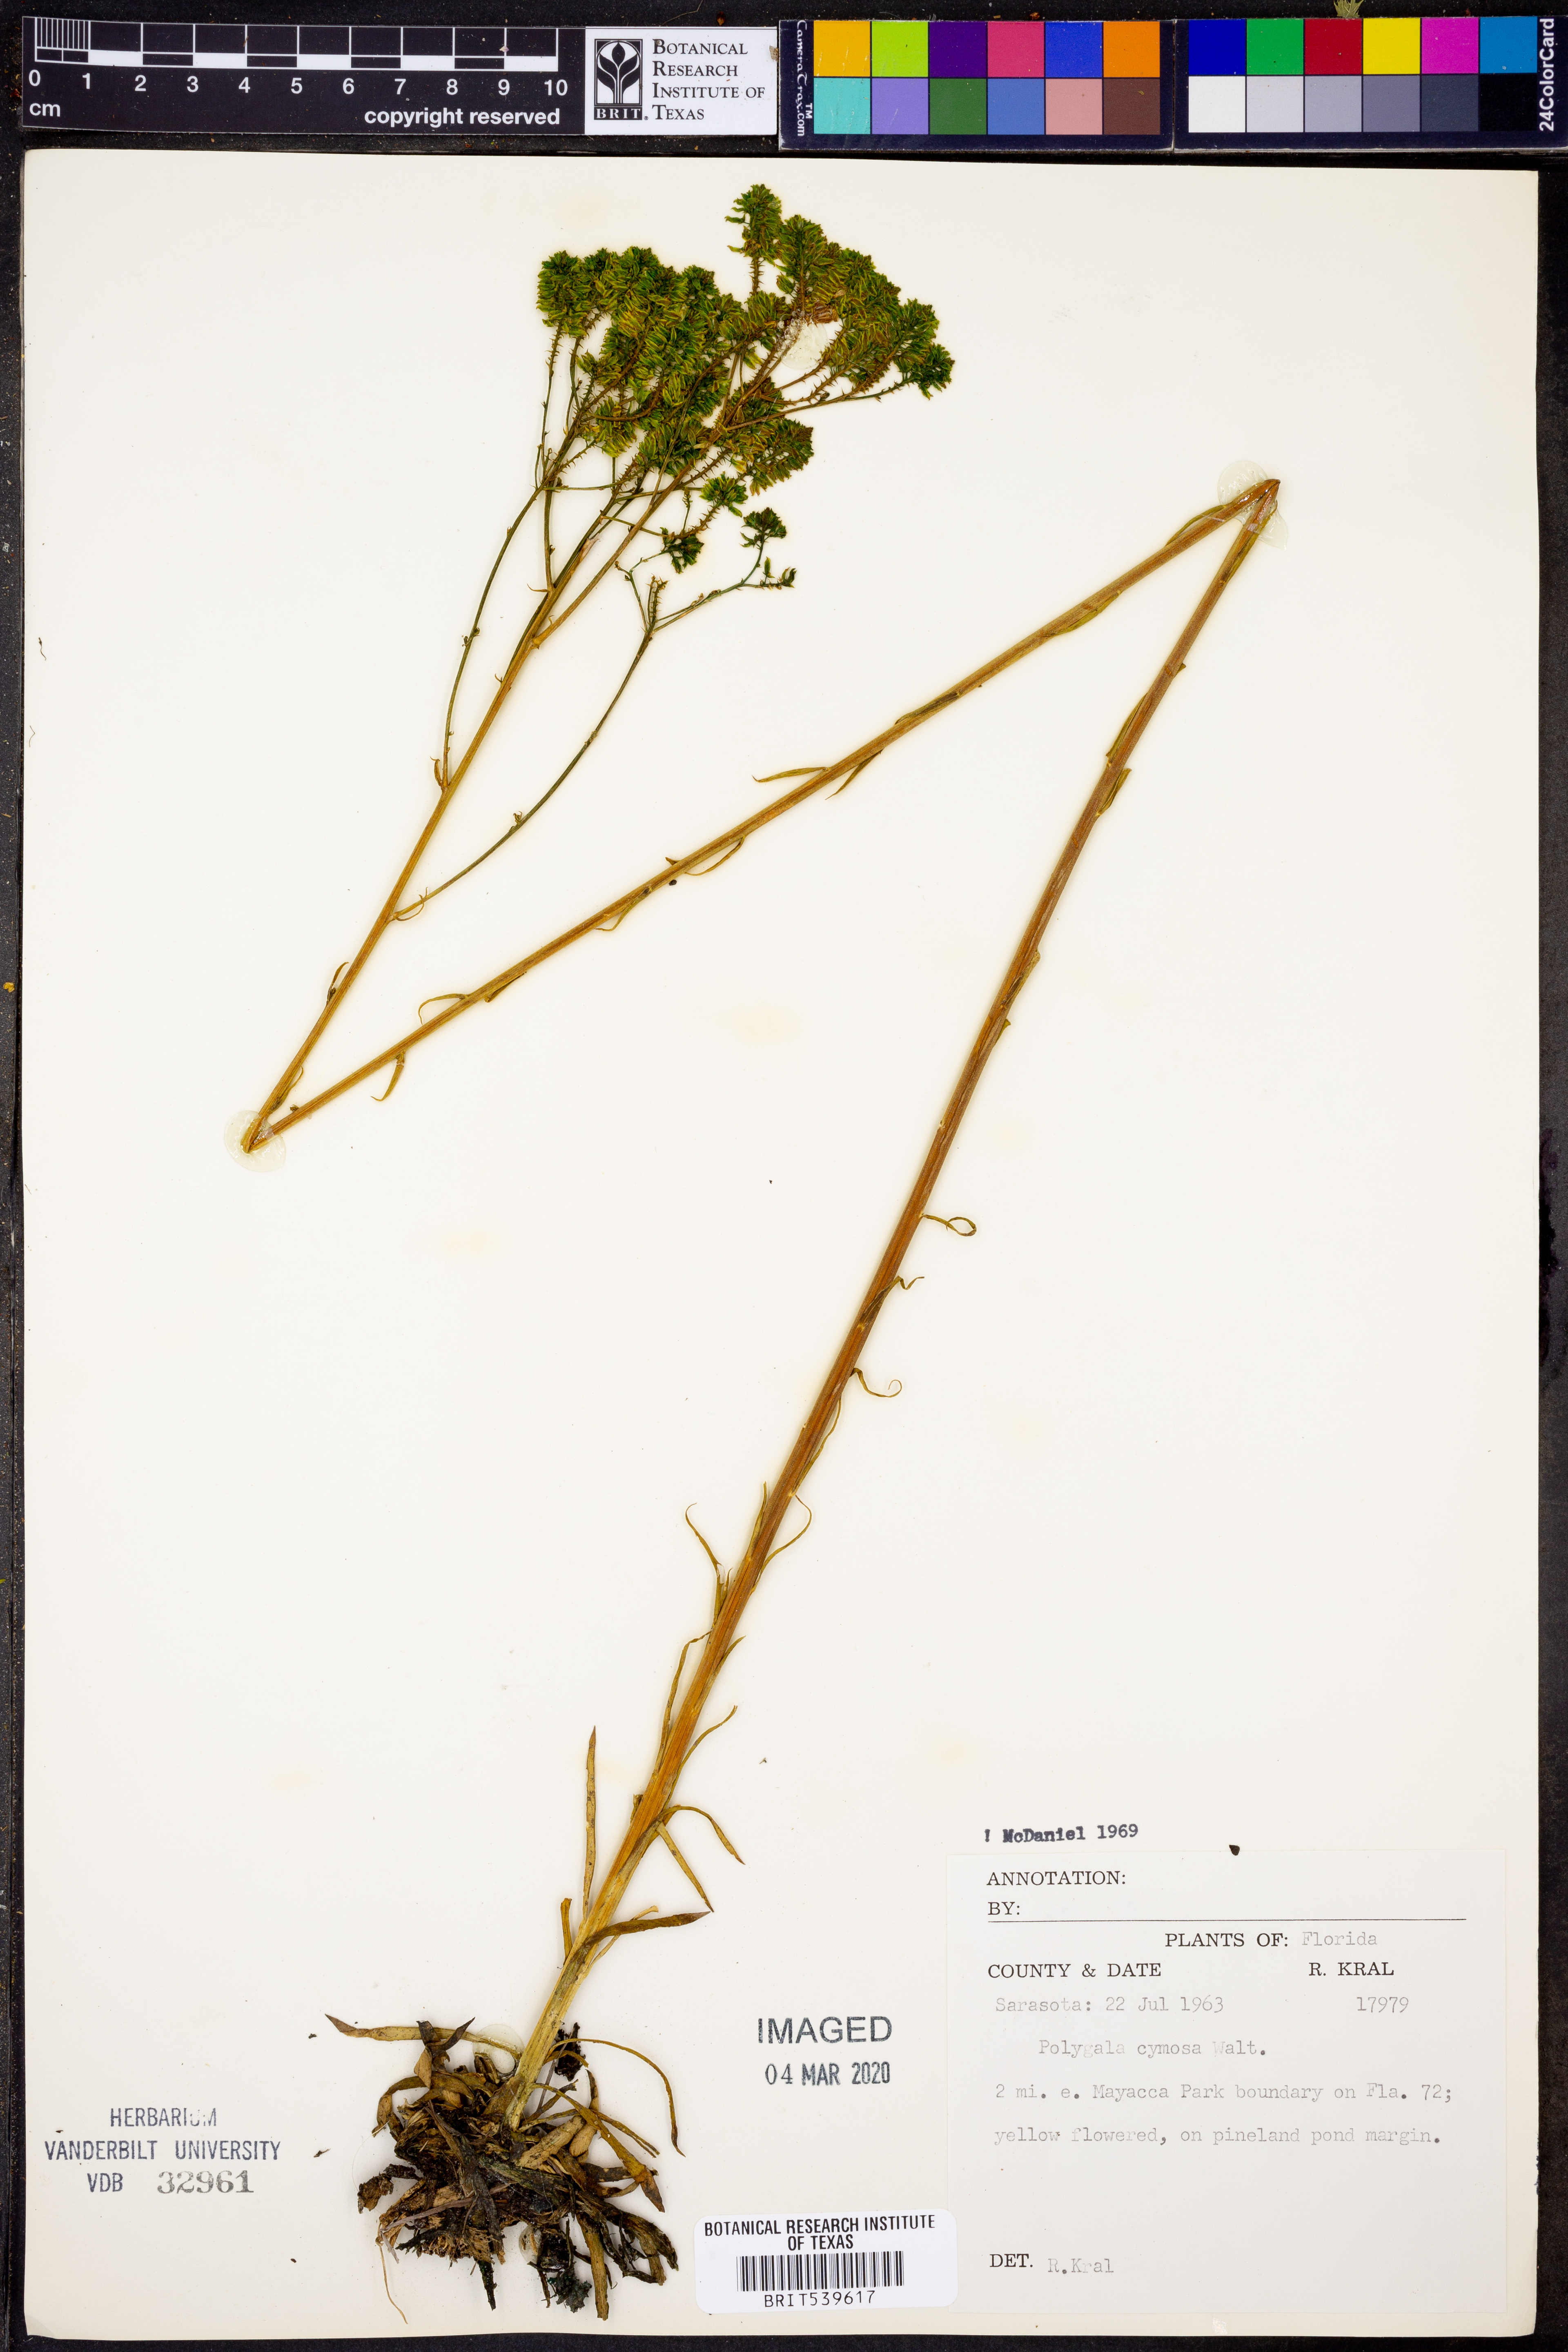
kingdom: Plantae
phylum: Tracheophyta
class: Magnoliopsida
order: Fabales
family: Polygalaceae
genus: Polygala
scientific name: Polygala cymosa
